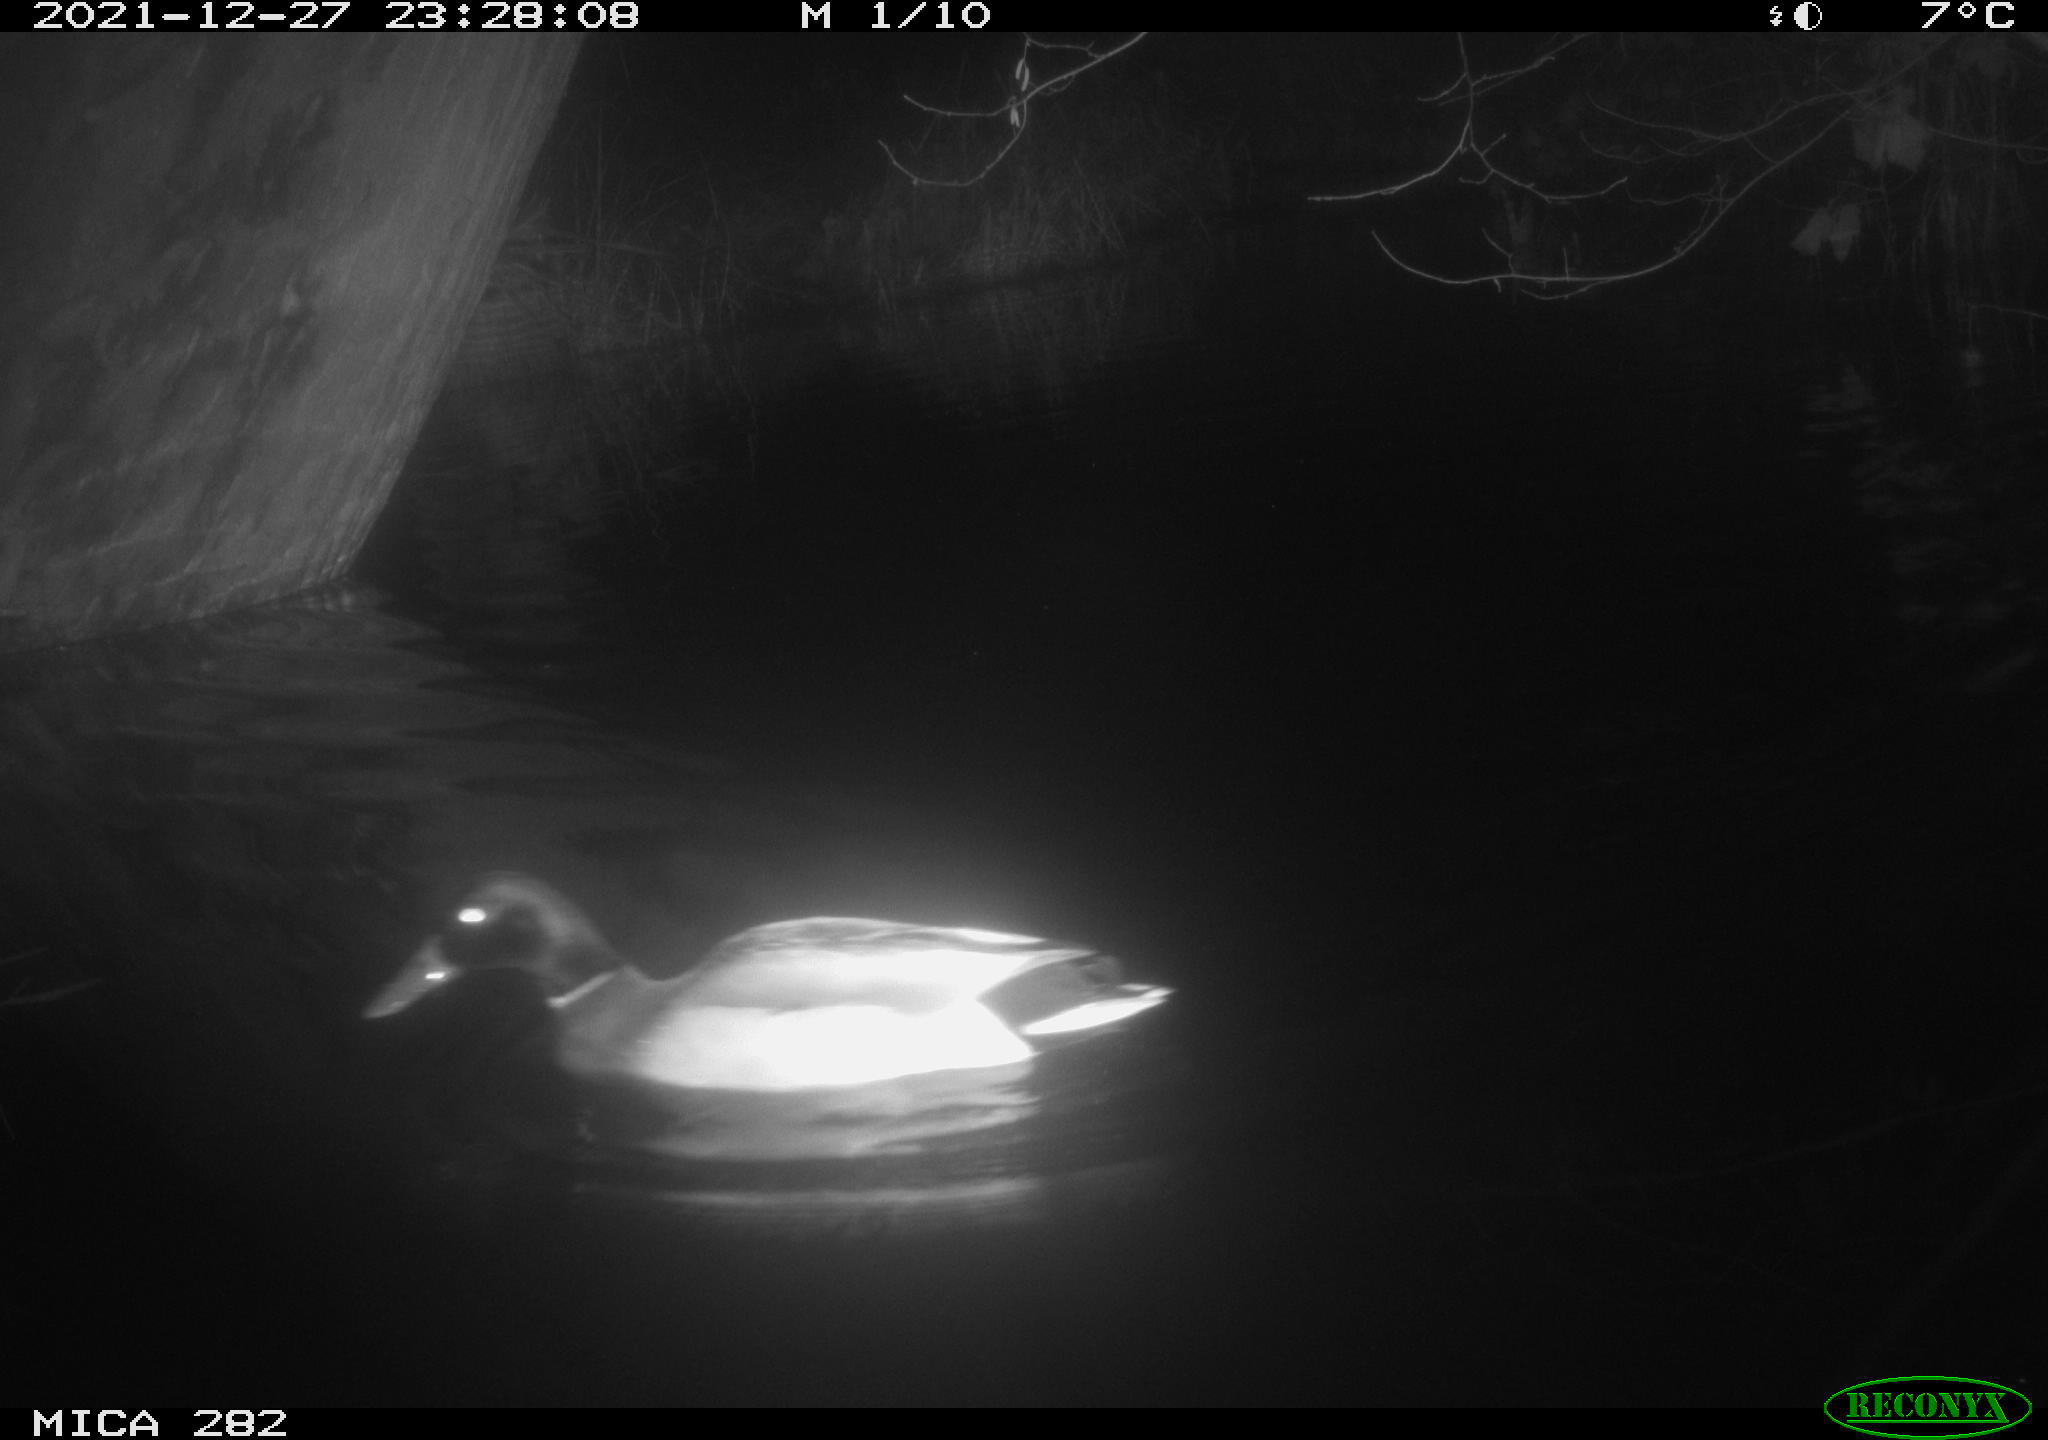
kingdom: Animalia
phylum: Chordata
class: Aves
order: Anseriformes
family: Anatidae
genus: Anas
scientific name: Anas platyrhynchos
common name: Mallard
